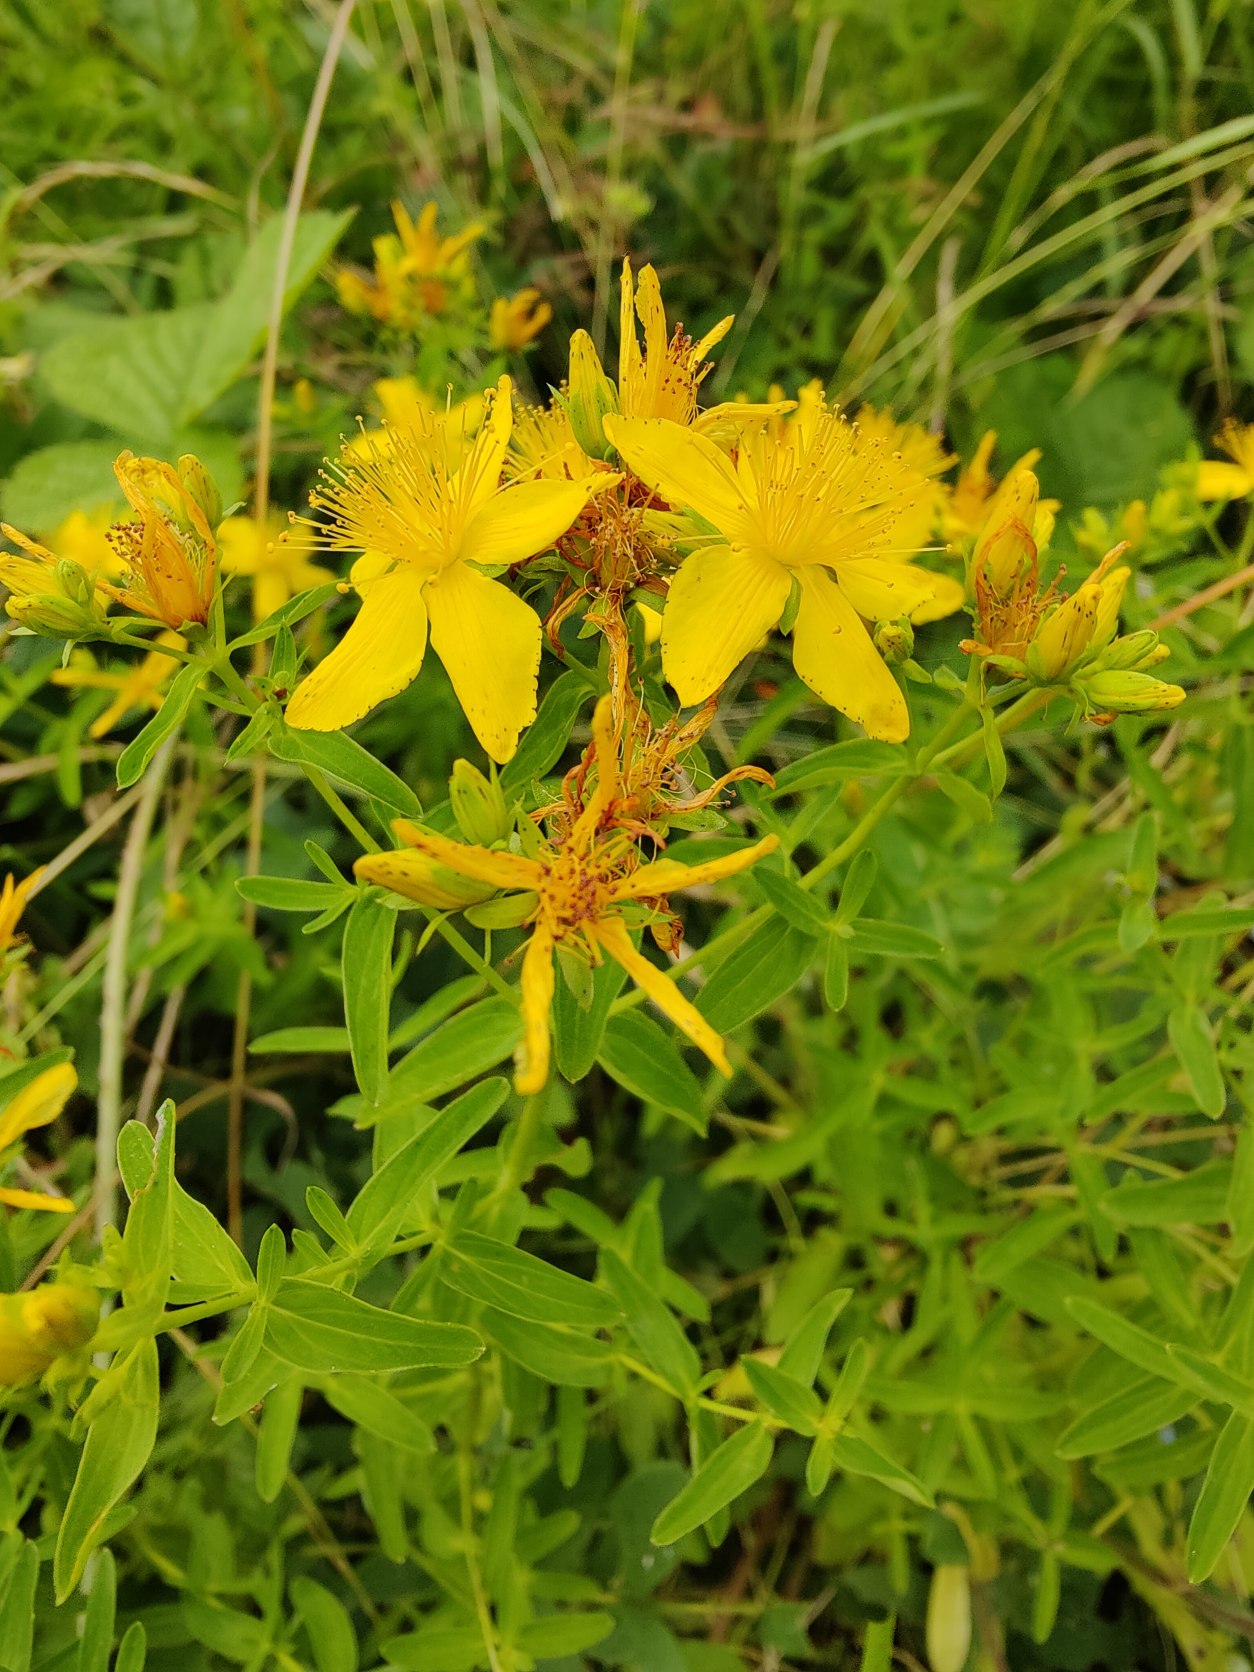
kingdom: Plantae
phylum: Tracheophyta
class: Magnoliopsida
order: Malpighiales
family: Hypericaceae
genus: Hypericum
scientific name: Hypericum perforatum
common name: Prikbladet perikon
